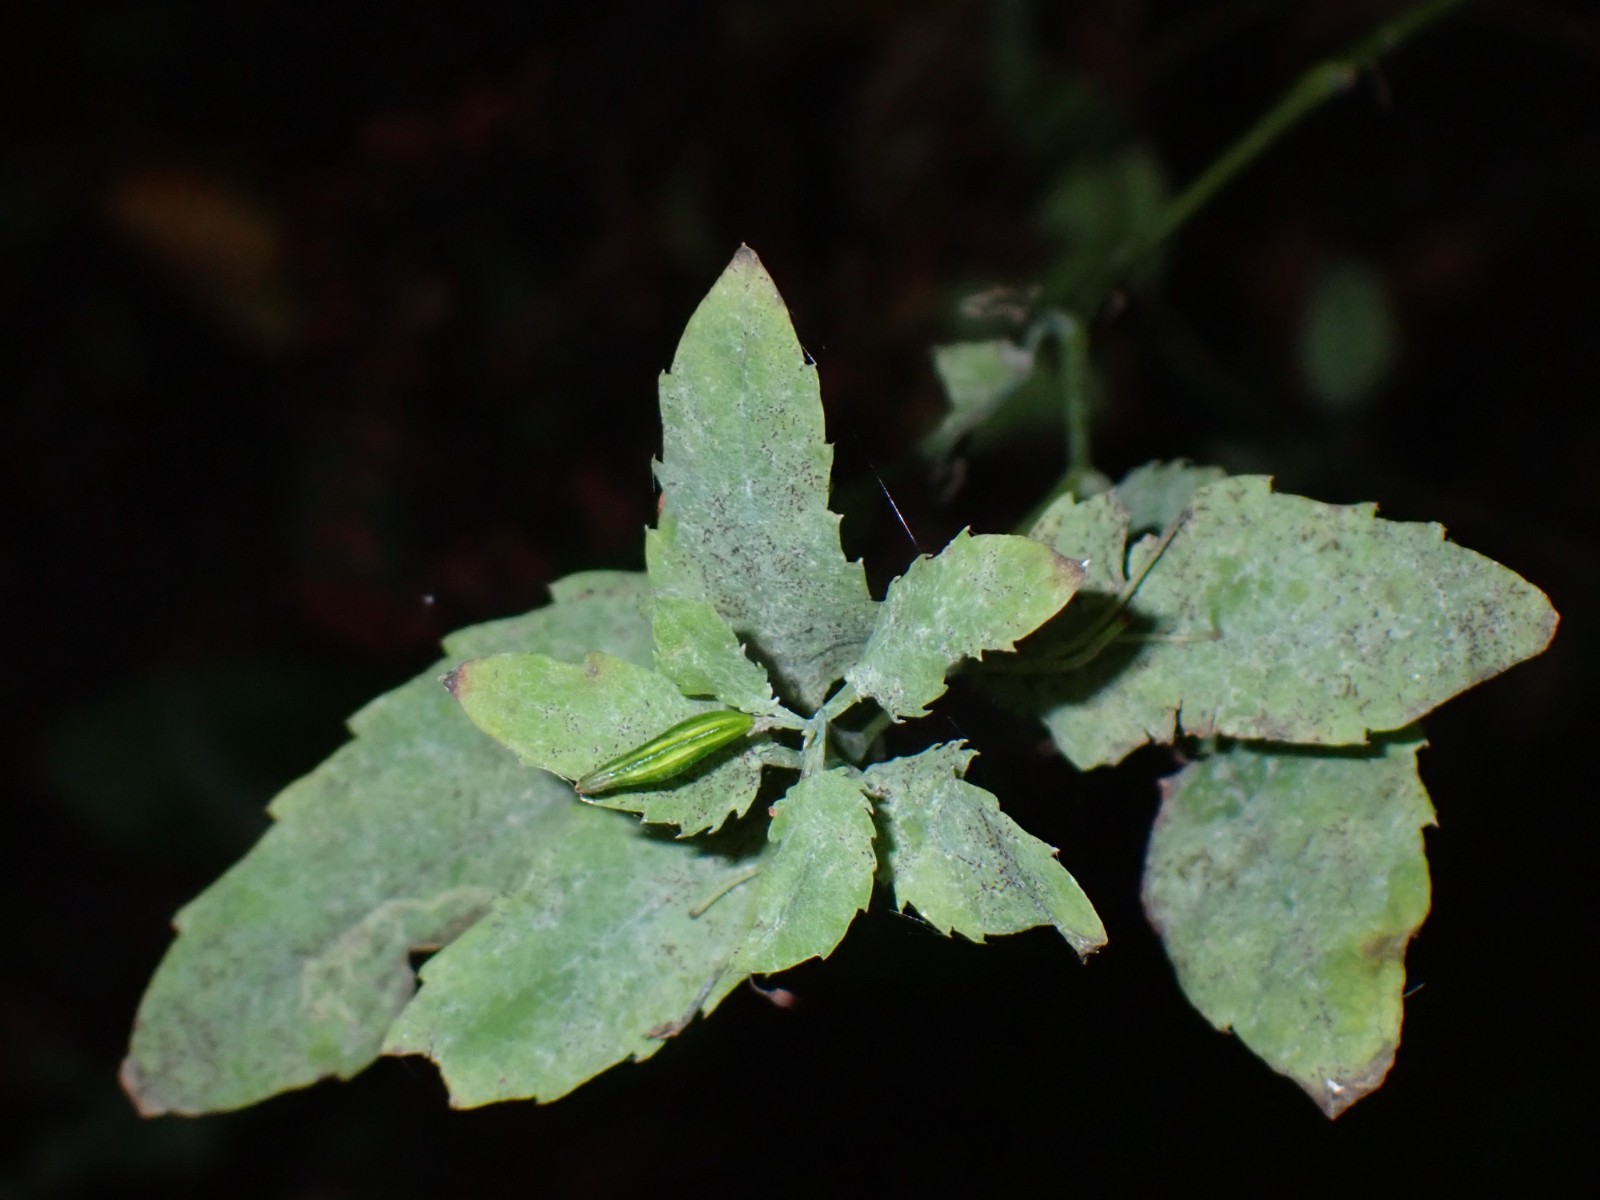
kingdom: Fungi
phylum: Ascomycota
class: Leotiomycetes
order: Helotiales
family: Erysiphaceae
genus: Podosphaera
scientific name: Podosphaera fusca
